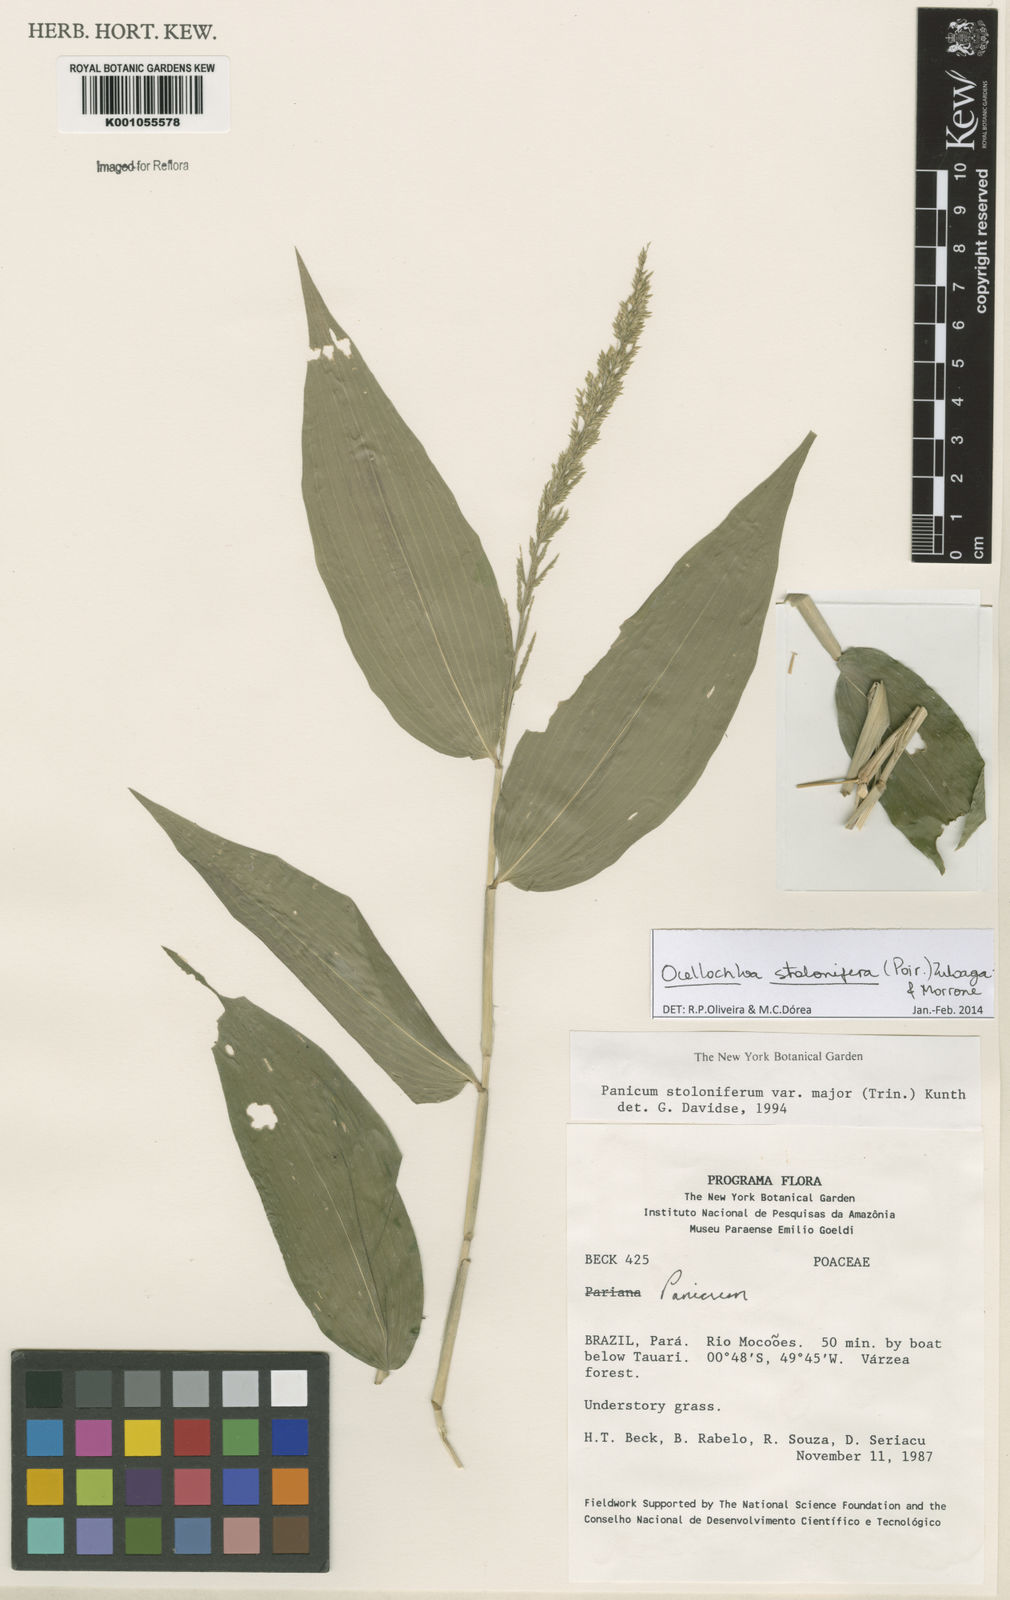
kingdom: Plantae
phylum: Tracheophyta
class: Liliopsida
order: Poales
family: Poaceae
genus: Ocellochloa
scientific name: Ocellochloa stolonifera
